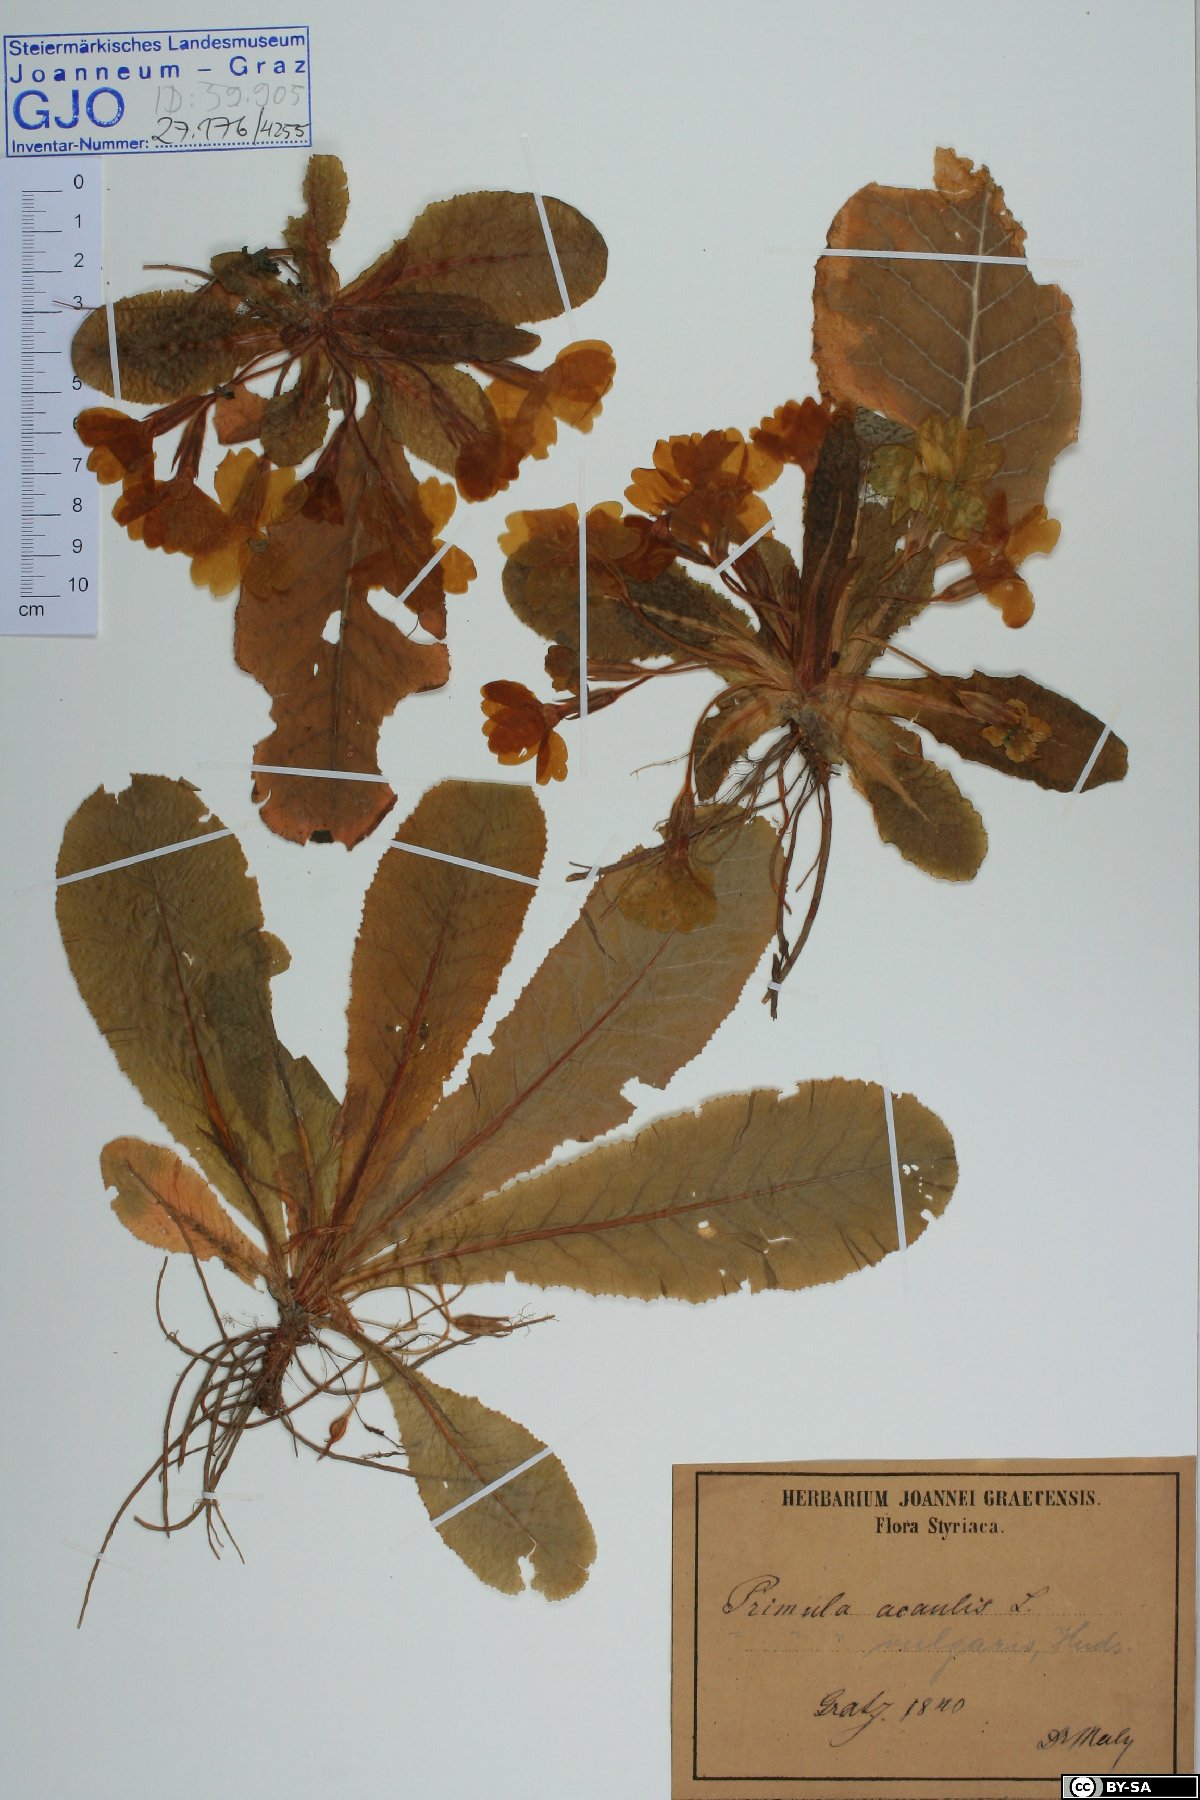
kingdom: Plantae
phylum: Tracheophyta
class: Magnoliopsida
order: Ericales
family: Primulaceae
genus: Primula
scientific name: Primula vulgaris
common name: Primrose
